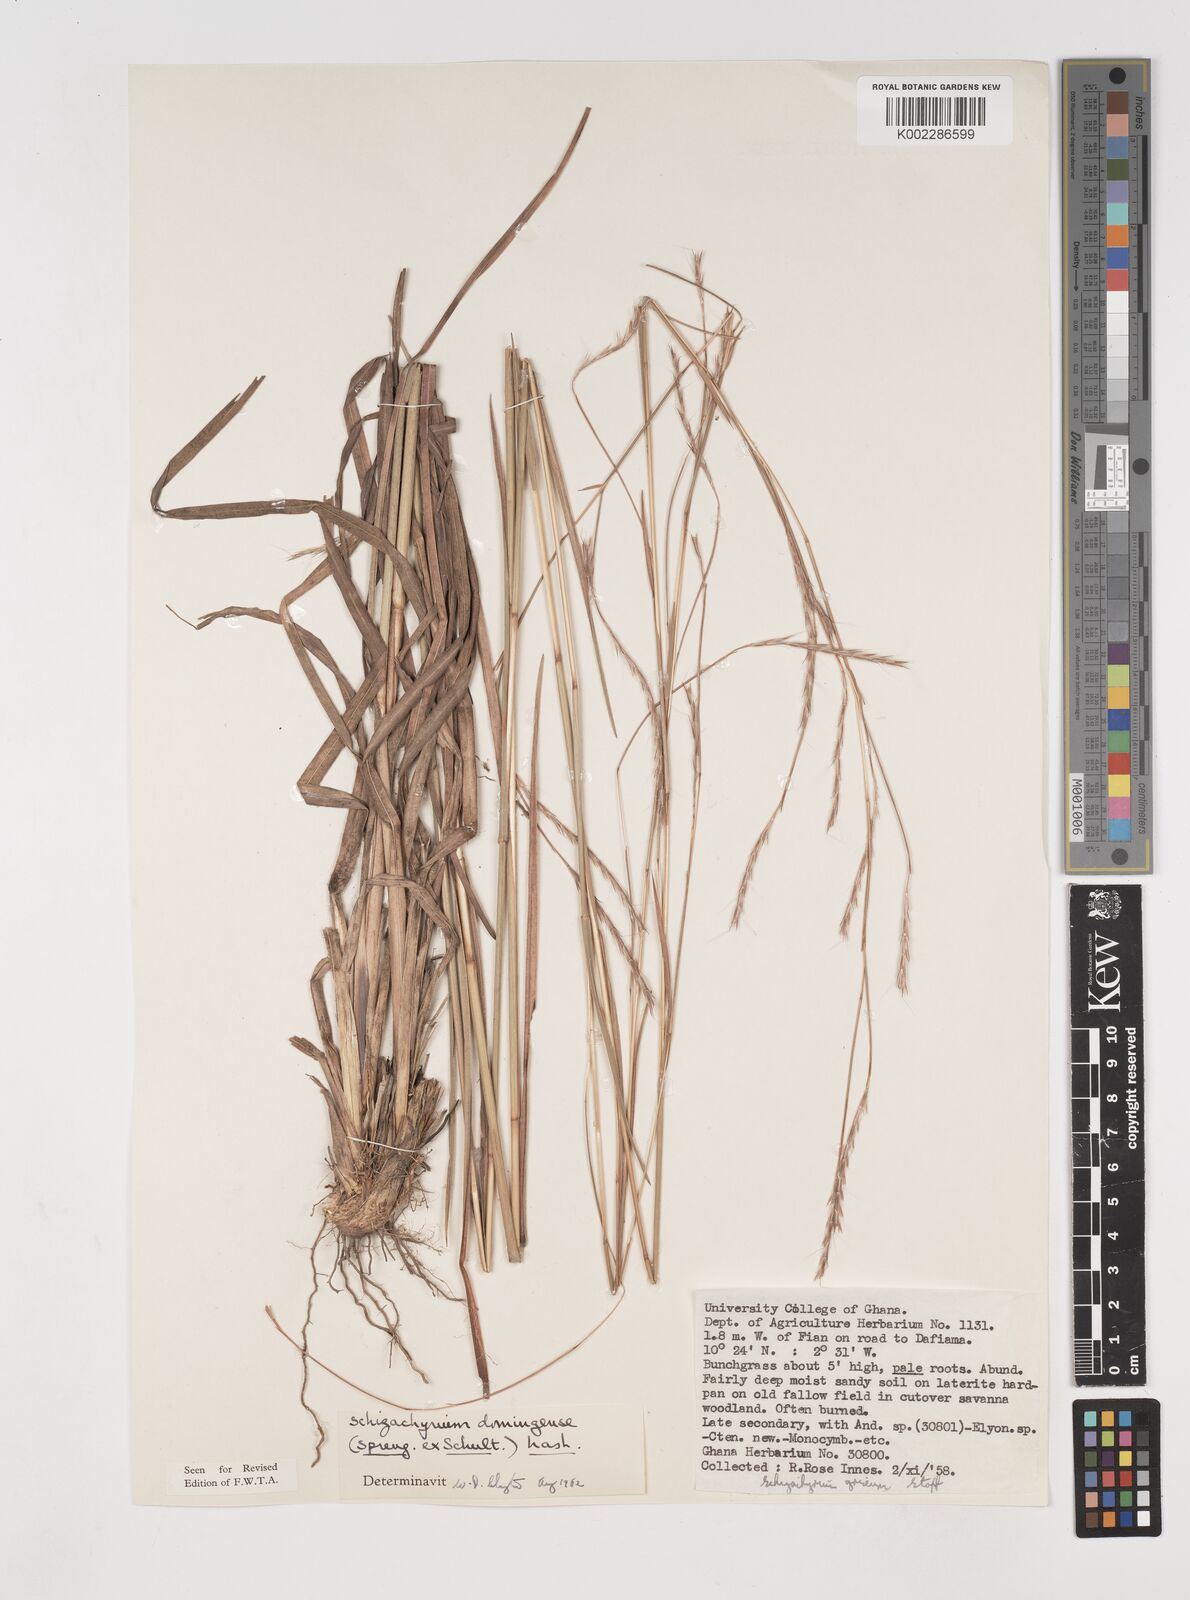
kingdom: Plantae
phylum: Tracheophyta
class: Liliopsida
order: Poales
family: Poaceae
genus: Schizachyrium
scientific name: Schizachyrium sanguineum
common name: Crimson bluestem
